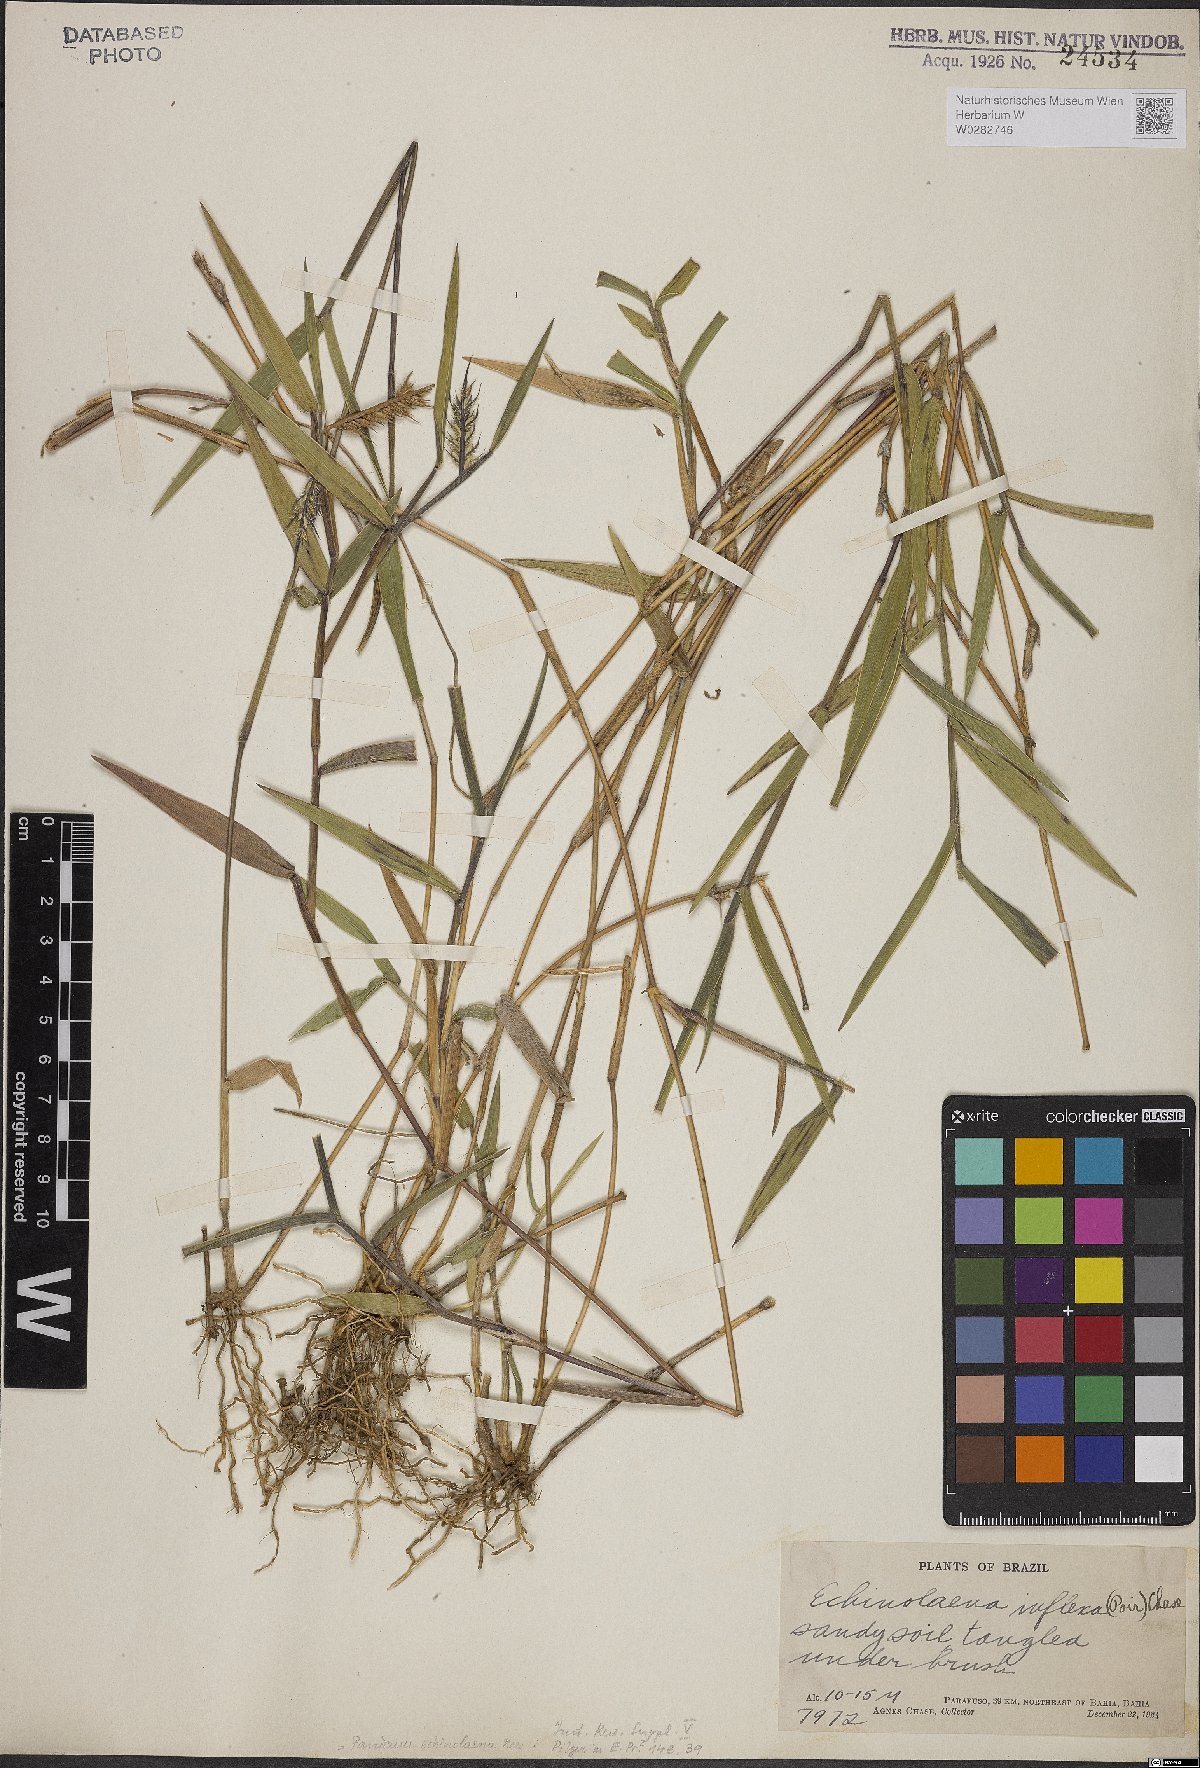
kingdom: Plantae
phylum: Tracheophyta
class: Liliopsida
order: Poales
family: Poaceae
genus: Echinolaena
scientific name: Echinolaena inflexa
